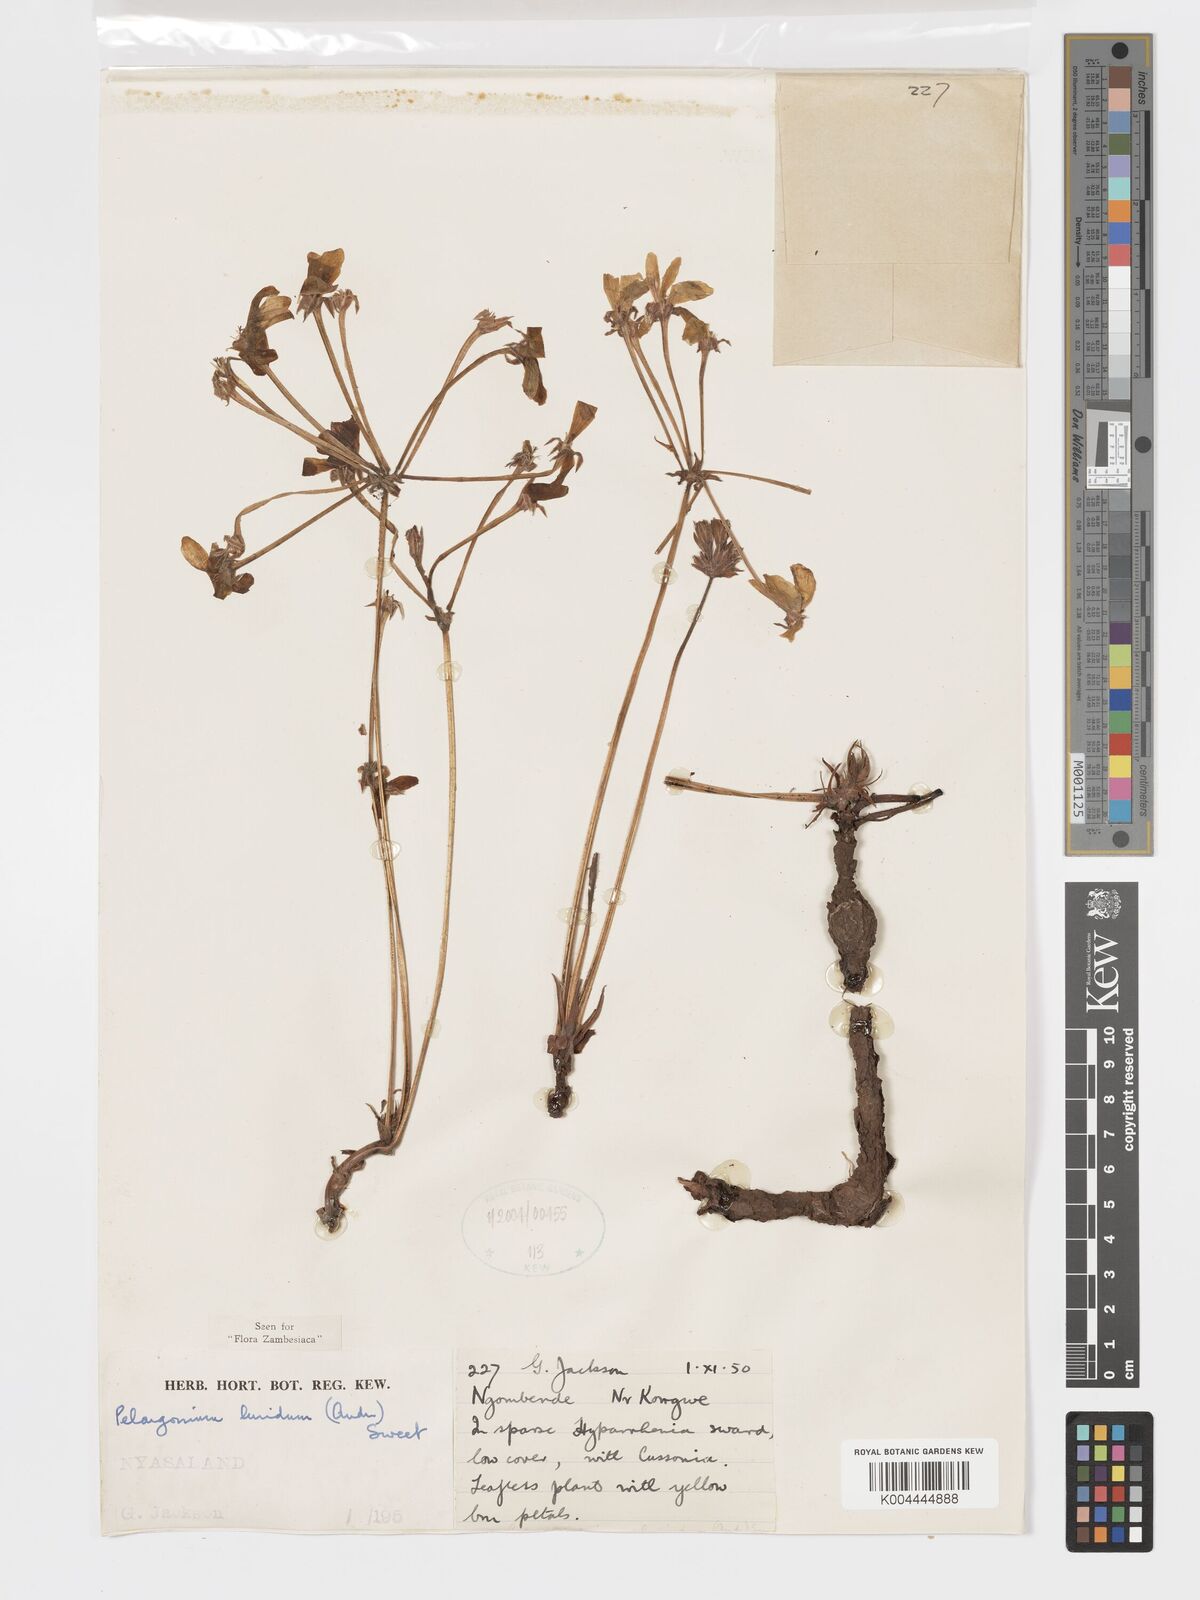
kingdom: Plantae
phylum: Tracheophyta
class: Magnoliopsida
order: Geraniales
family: Geraniaceae
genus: Pelargonium
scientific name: Pelargonium luridum
